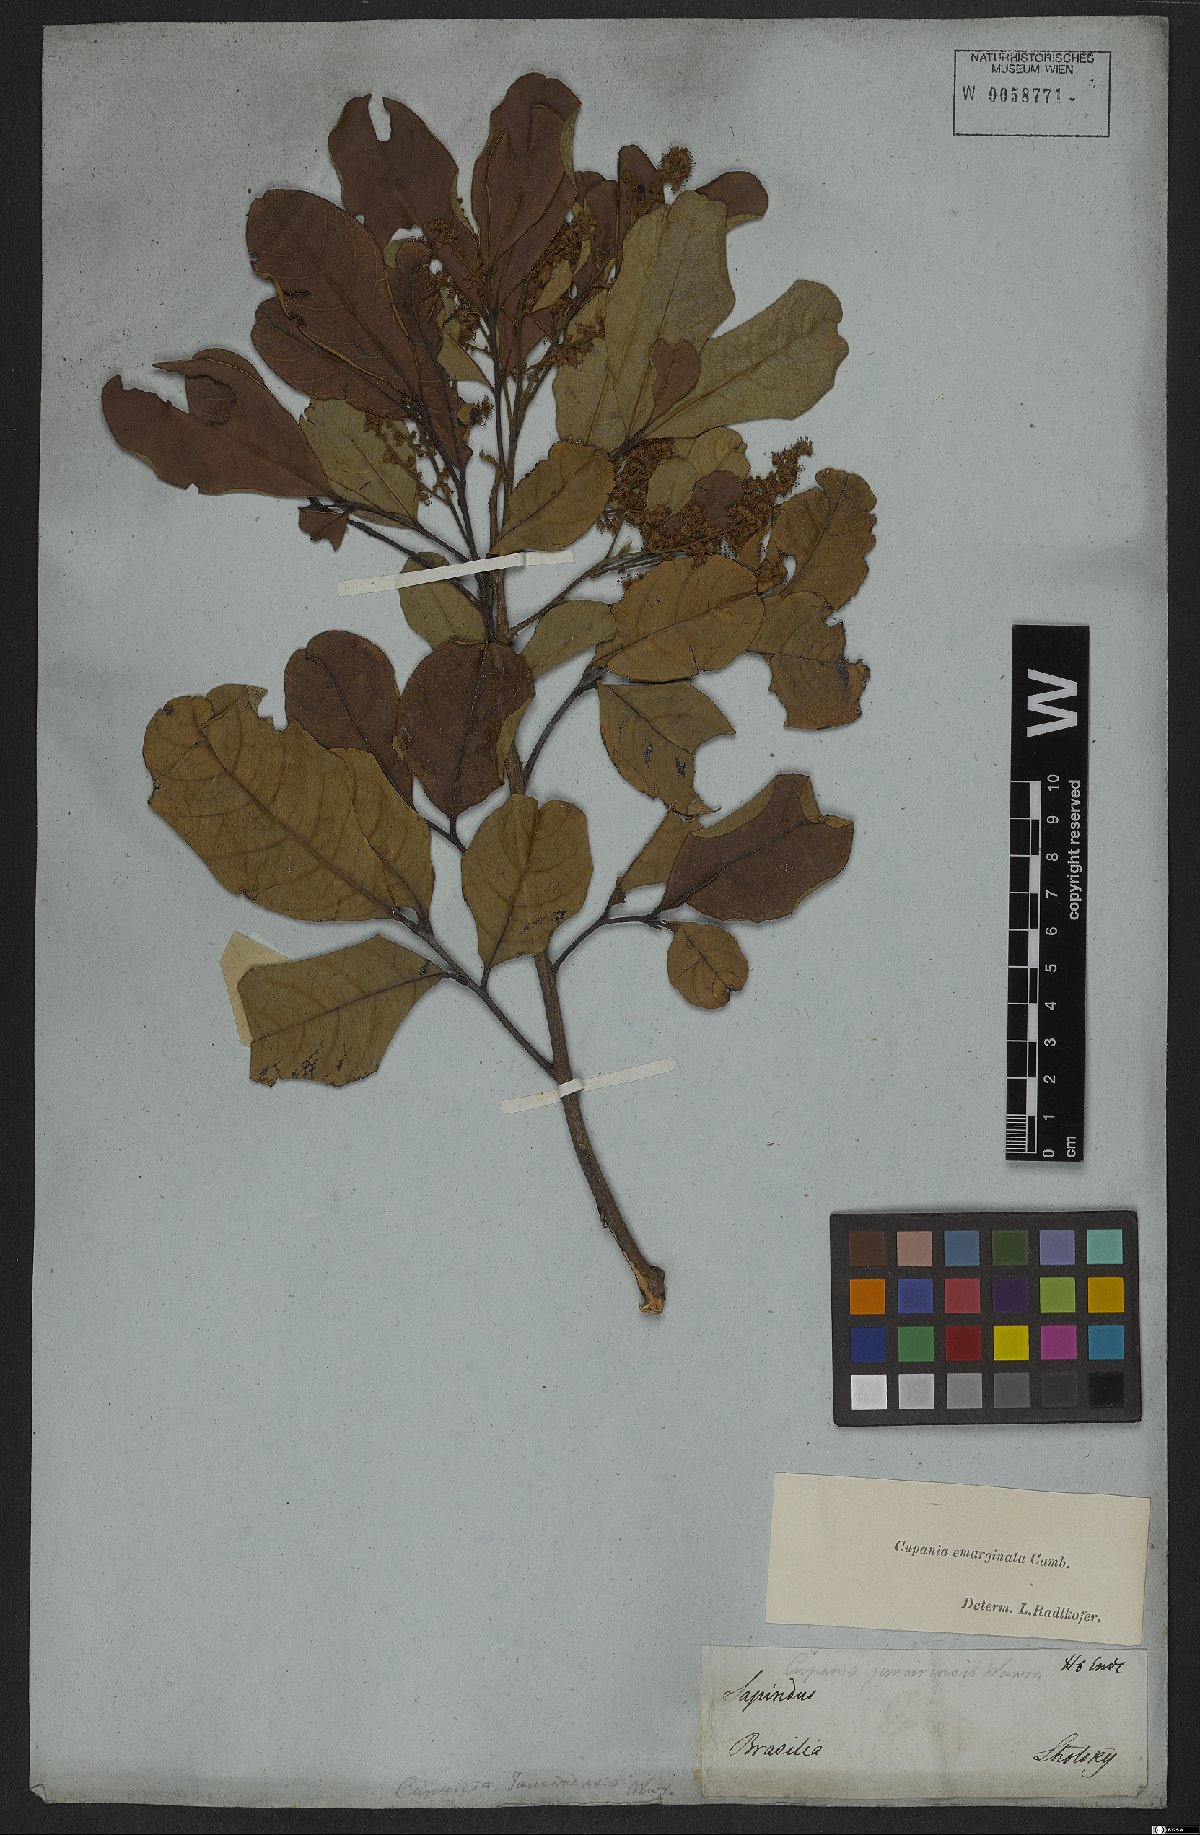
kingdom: Plantae
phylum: Tracheophyta
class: Magnoliopsida
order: Sapindales
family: Sapindaceae
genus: Cupania
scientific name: Cupania emarginata
